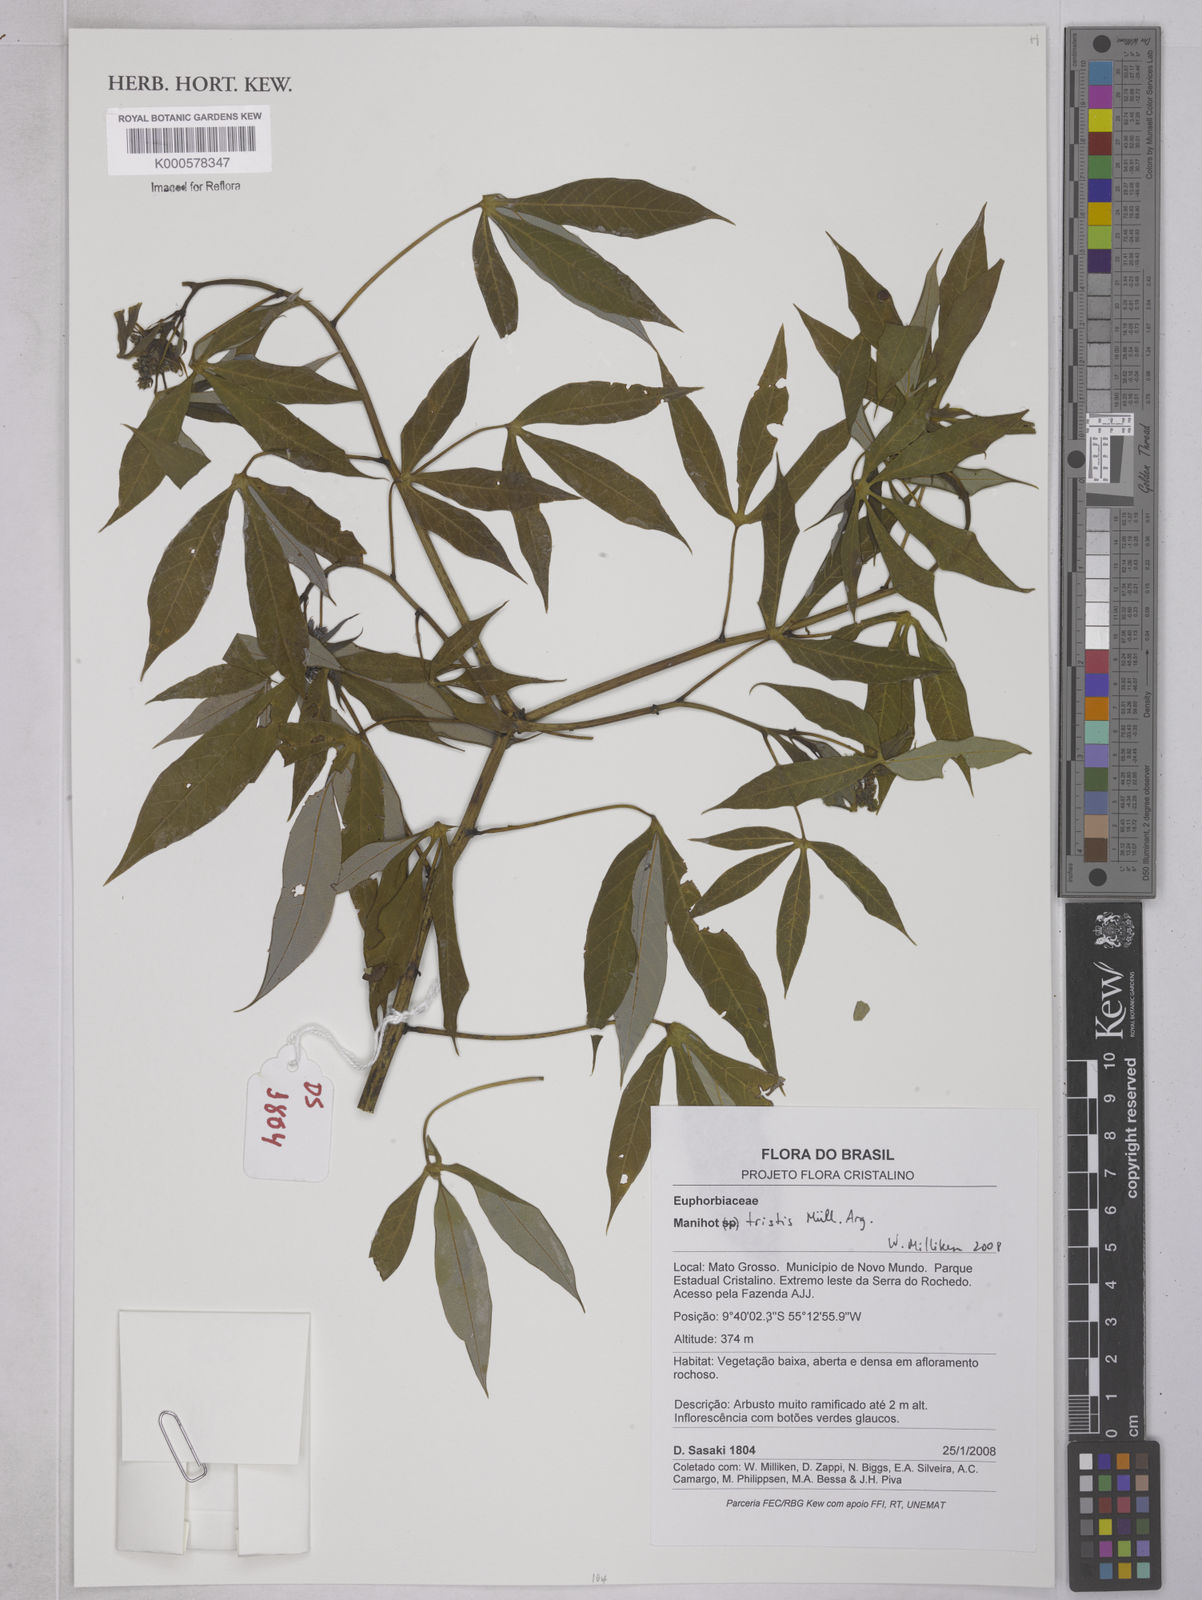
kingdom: Plantae
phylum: Tracheophyta
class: Magnoliopsida
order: Malpighiales
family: Euphorbiaceae
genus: Manihot
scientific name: Manihot
